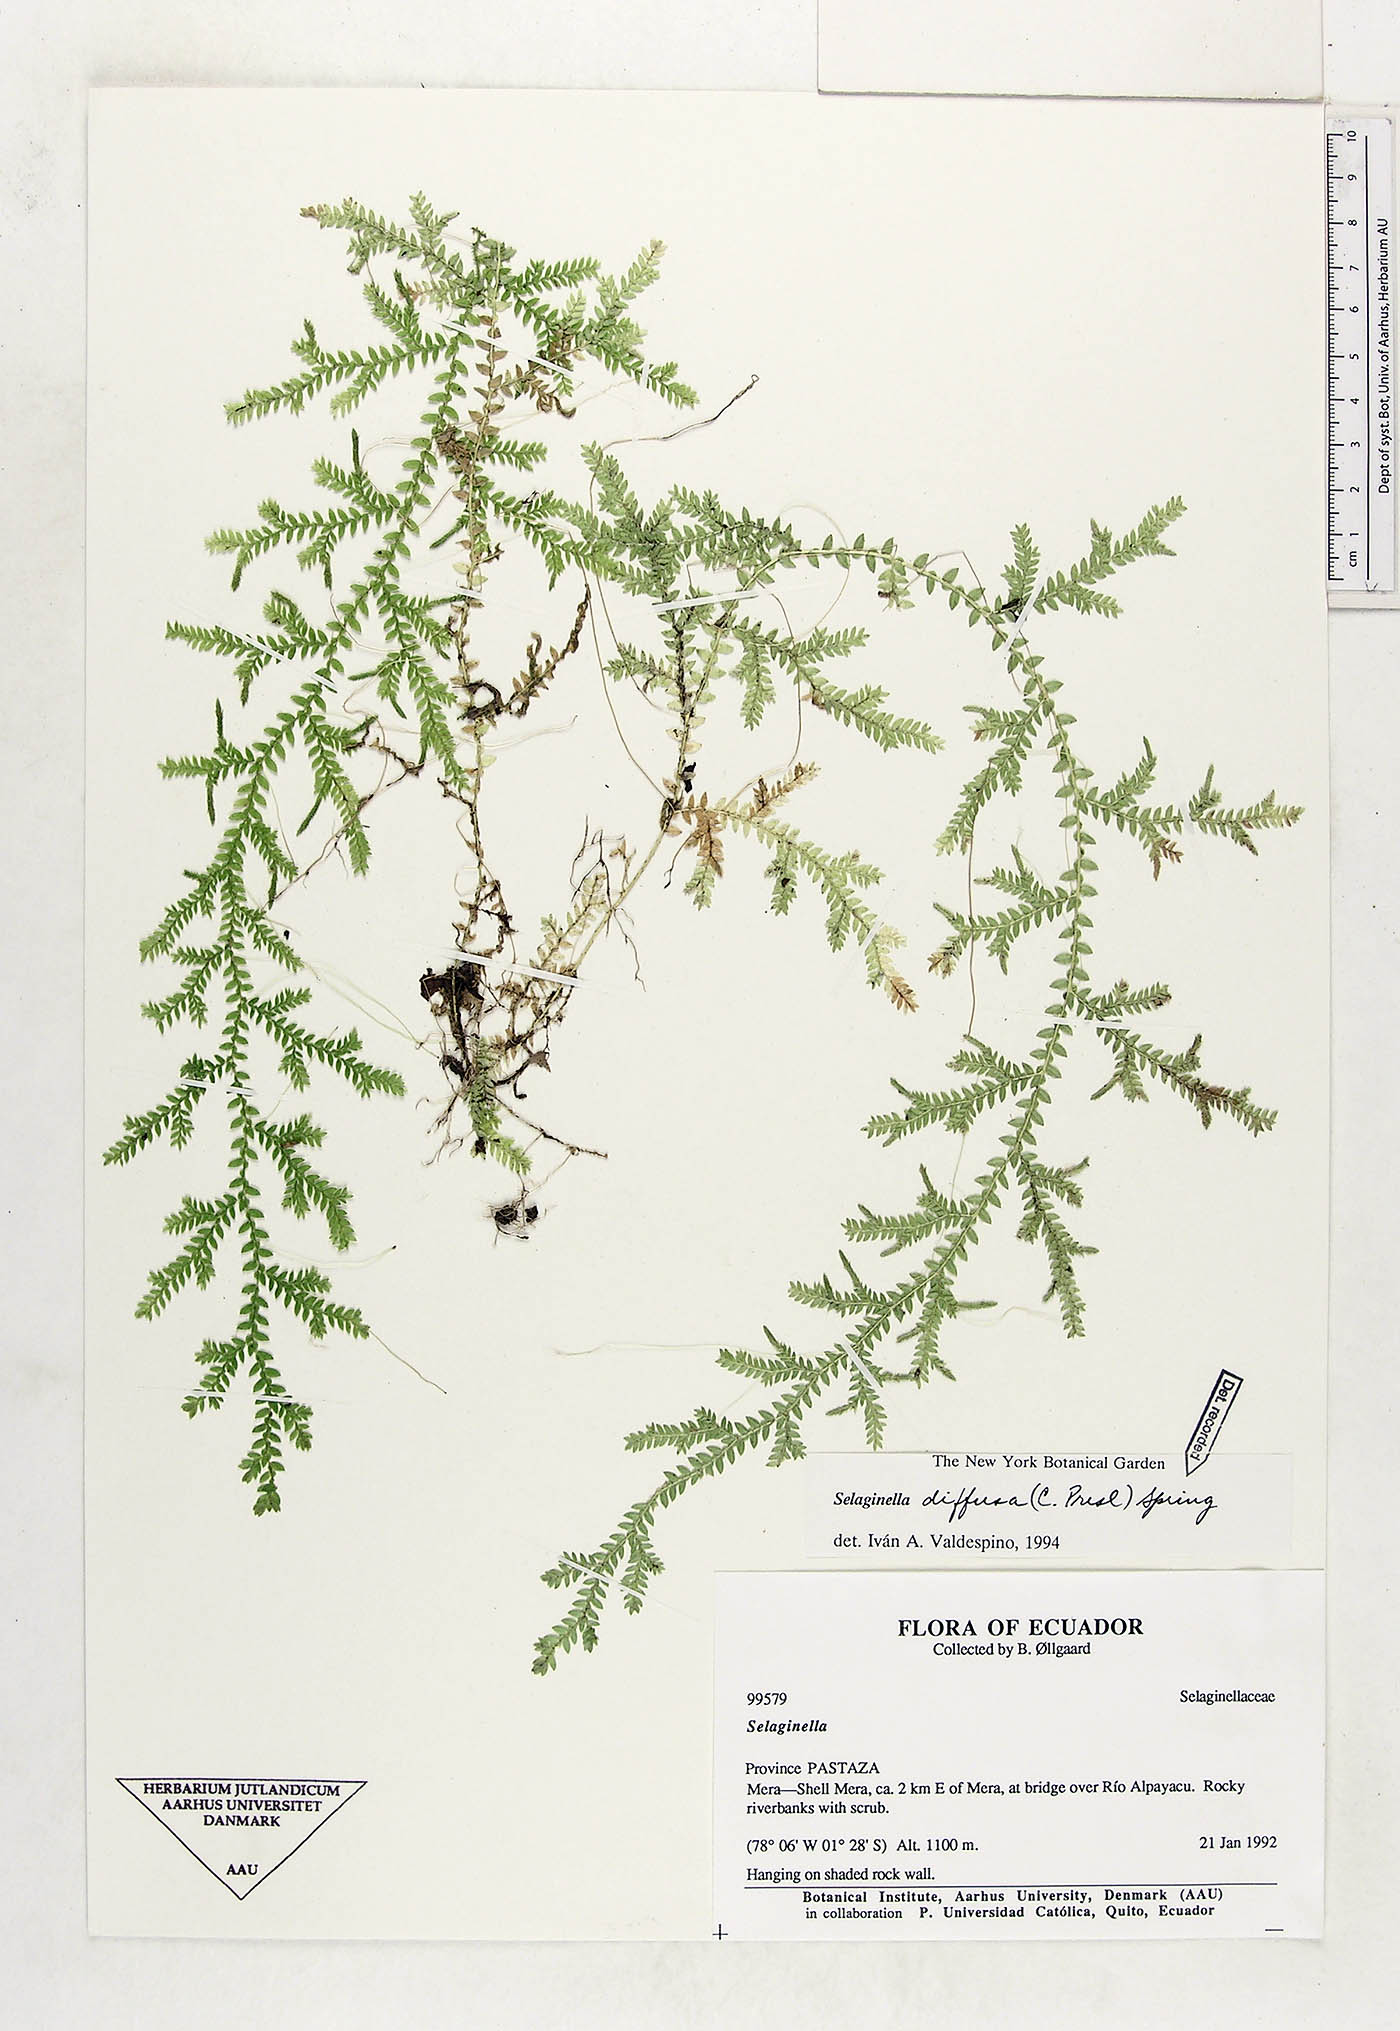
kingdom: Plantae
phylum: Tracheophyta
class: Lycopodiopsida
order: Selaginellales
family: Selaginellaceae
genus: Selaginella
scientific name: Selaginella diffusa
